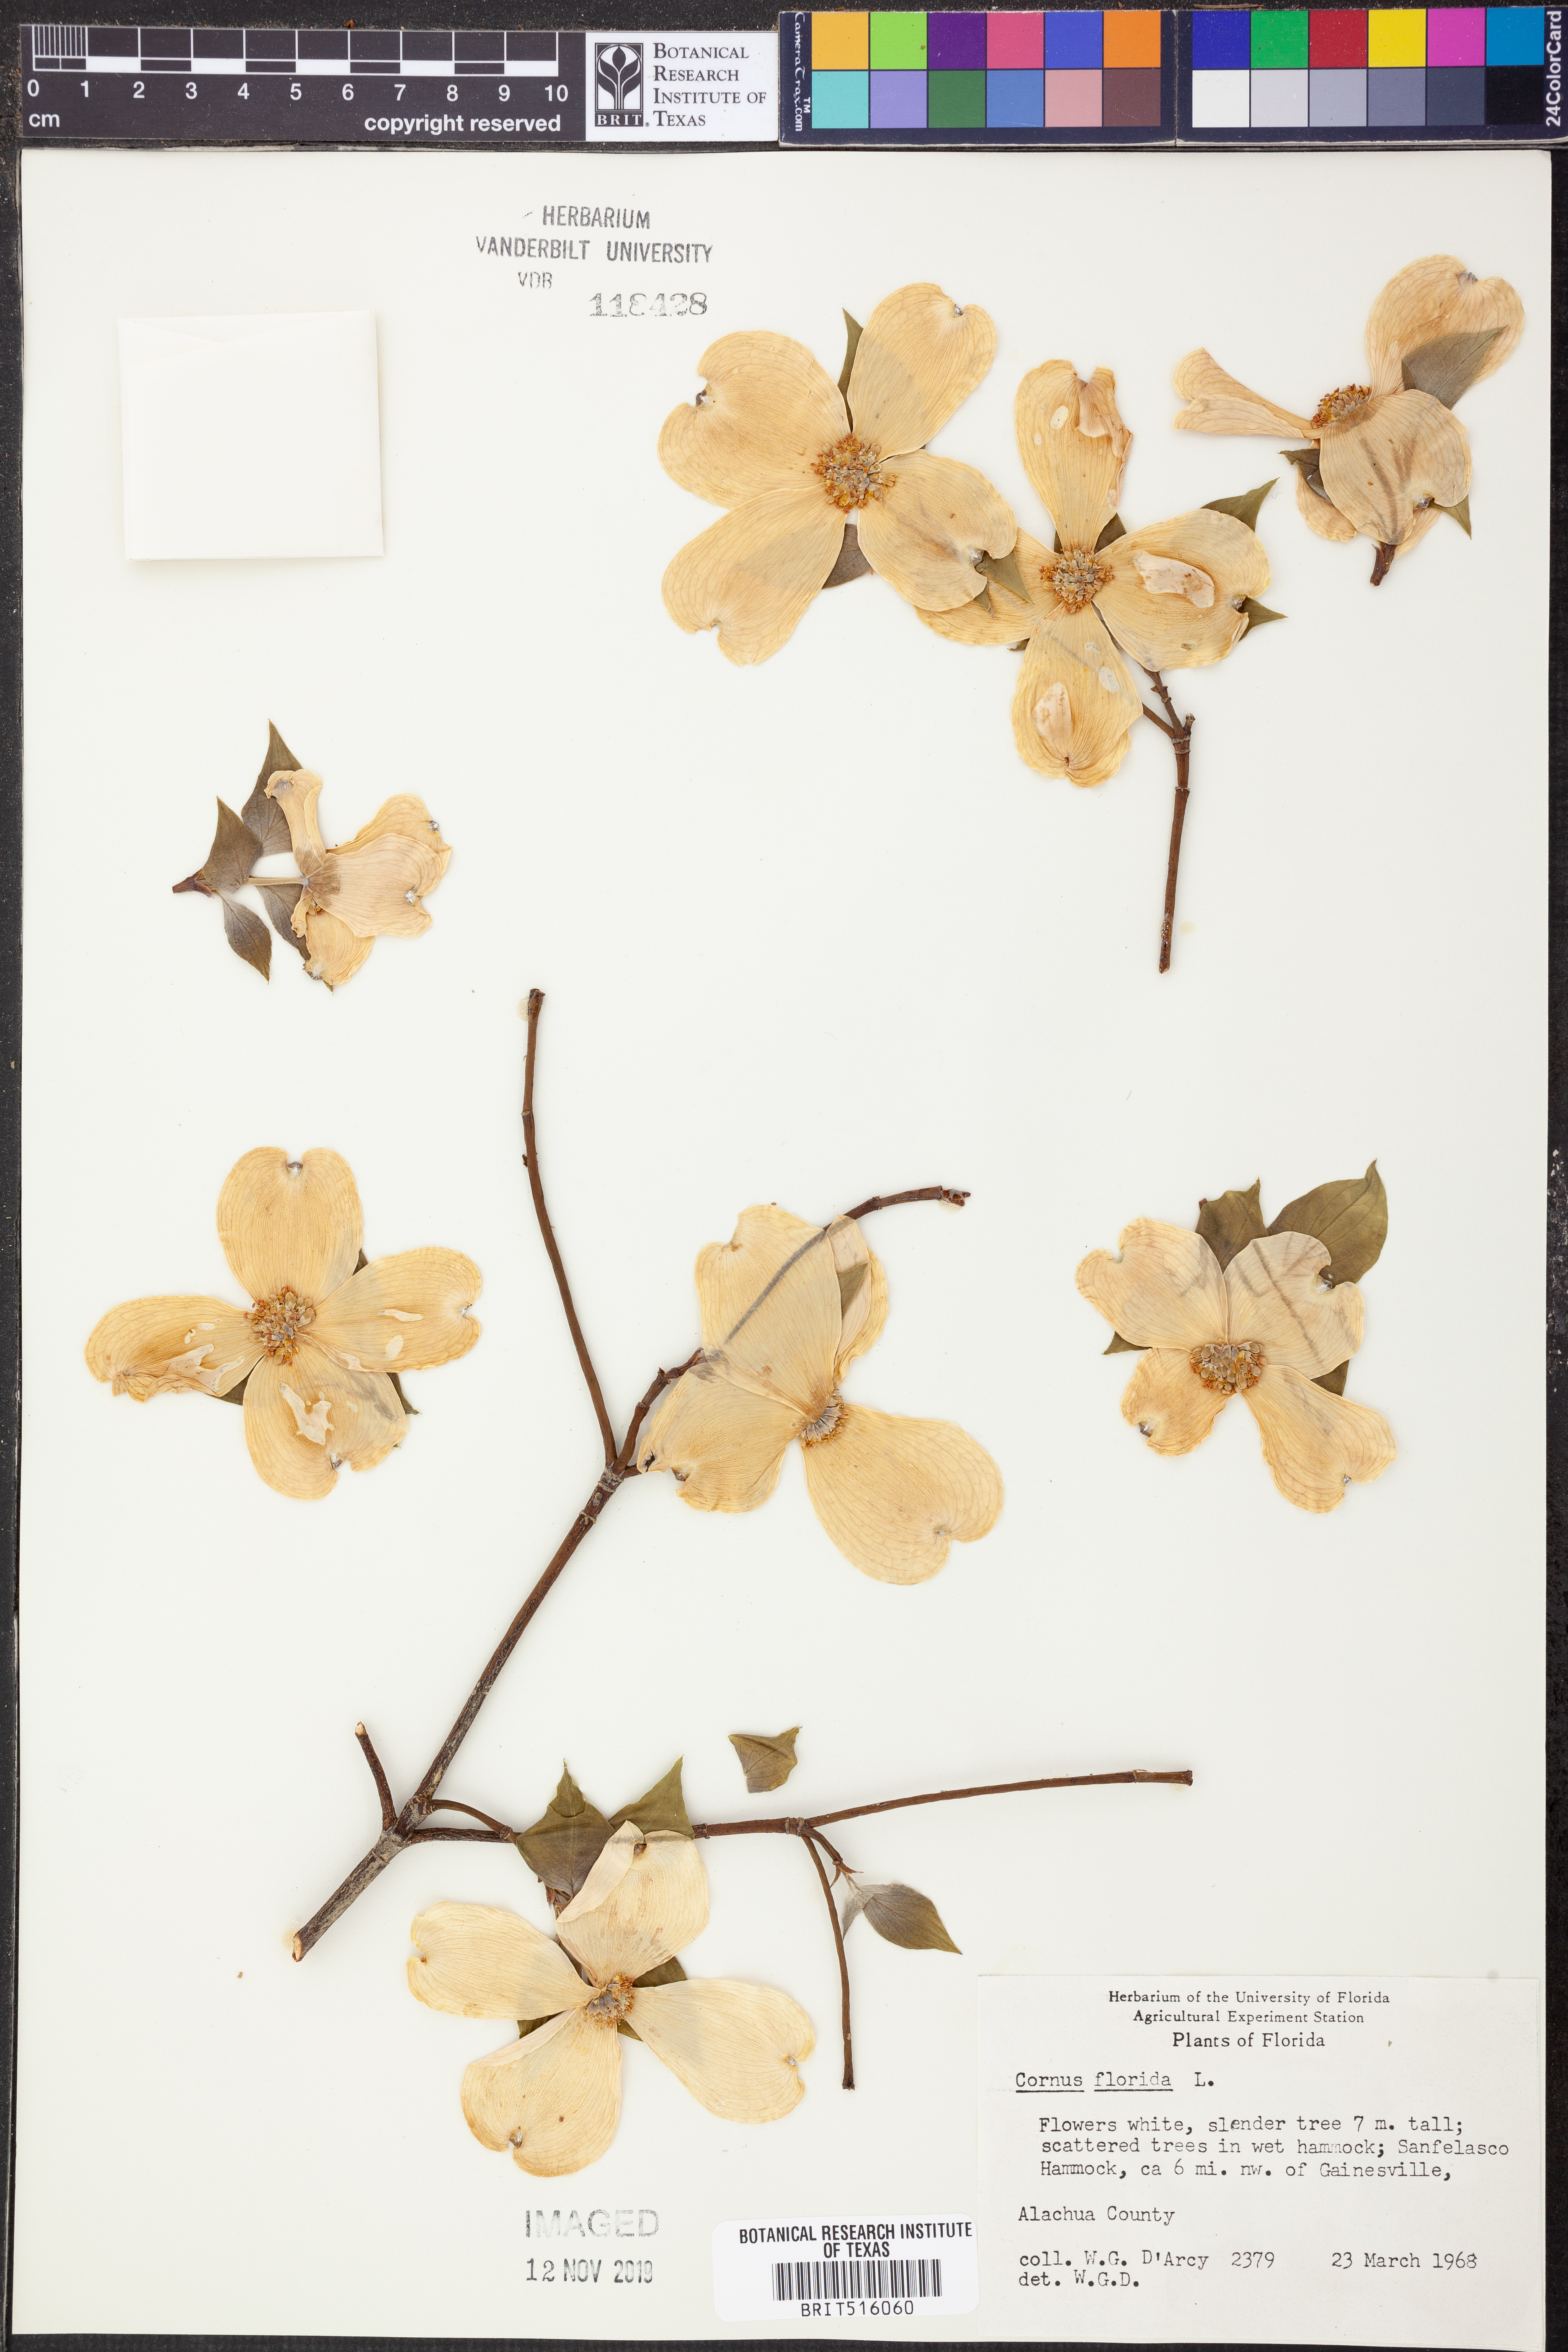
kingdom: Plantae
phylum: Tracheophyta
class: Magnoliopsida
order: Cornales
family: Cornaceae
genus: Cornus
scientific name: Cornus florida
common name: Flowering dogwood
